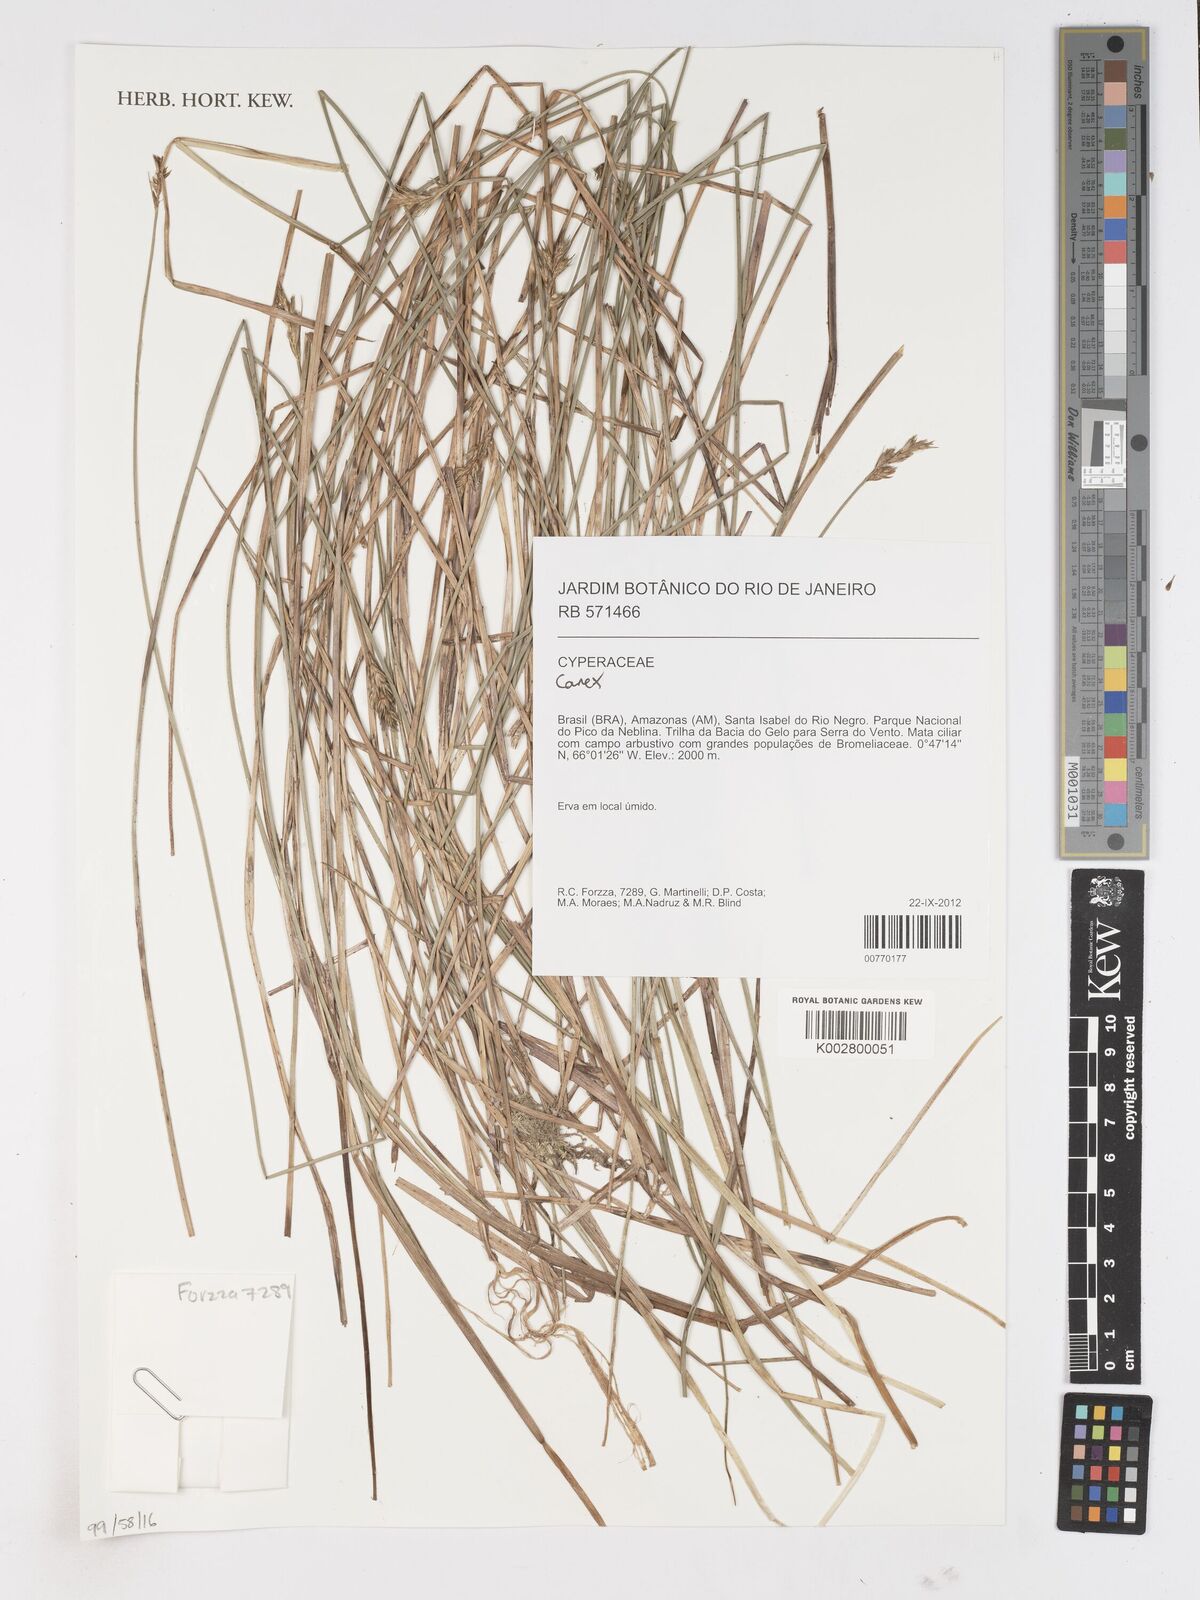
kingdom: Plantae
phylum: Tracheophyta
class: Liliopsida
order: Poales
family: Cyperaceae
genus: Carex
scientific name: Carex
